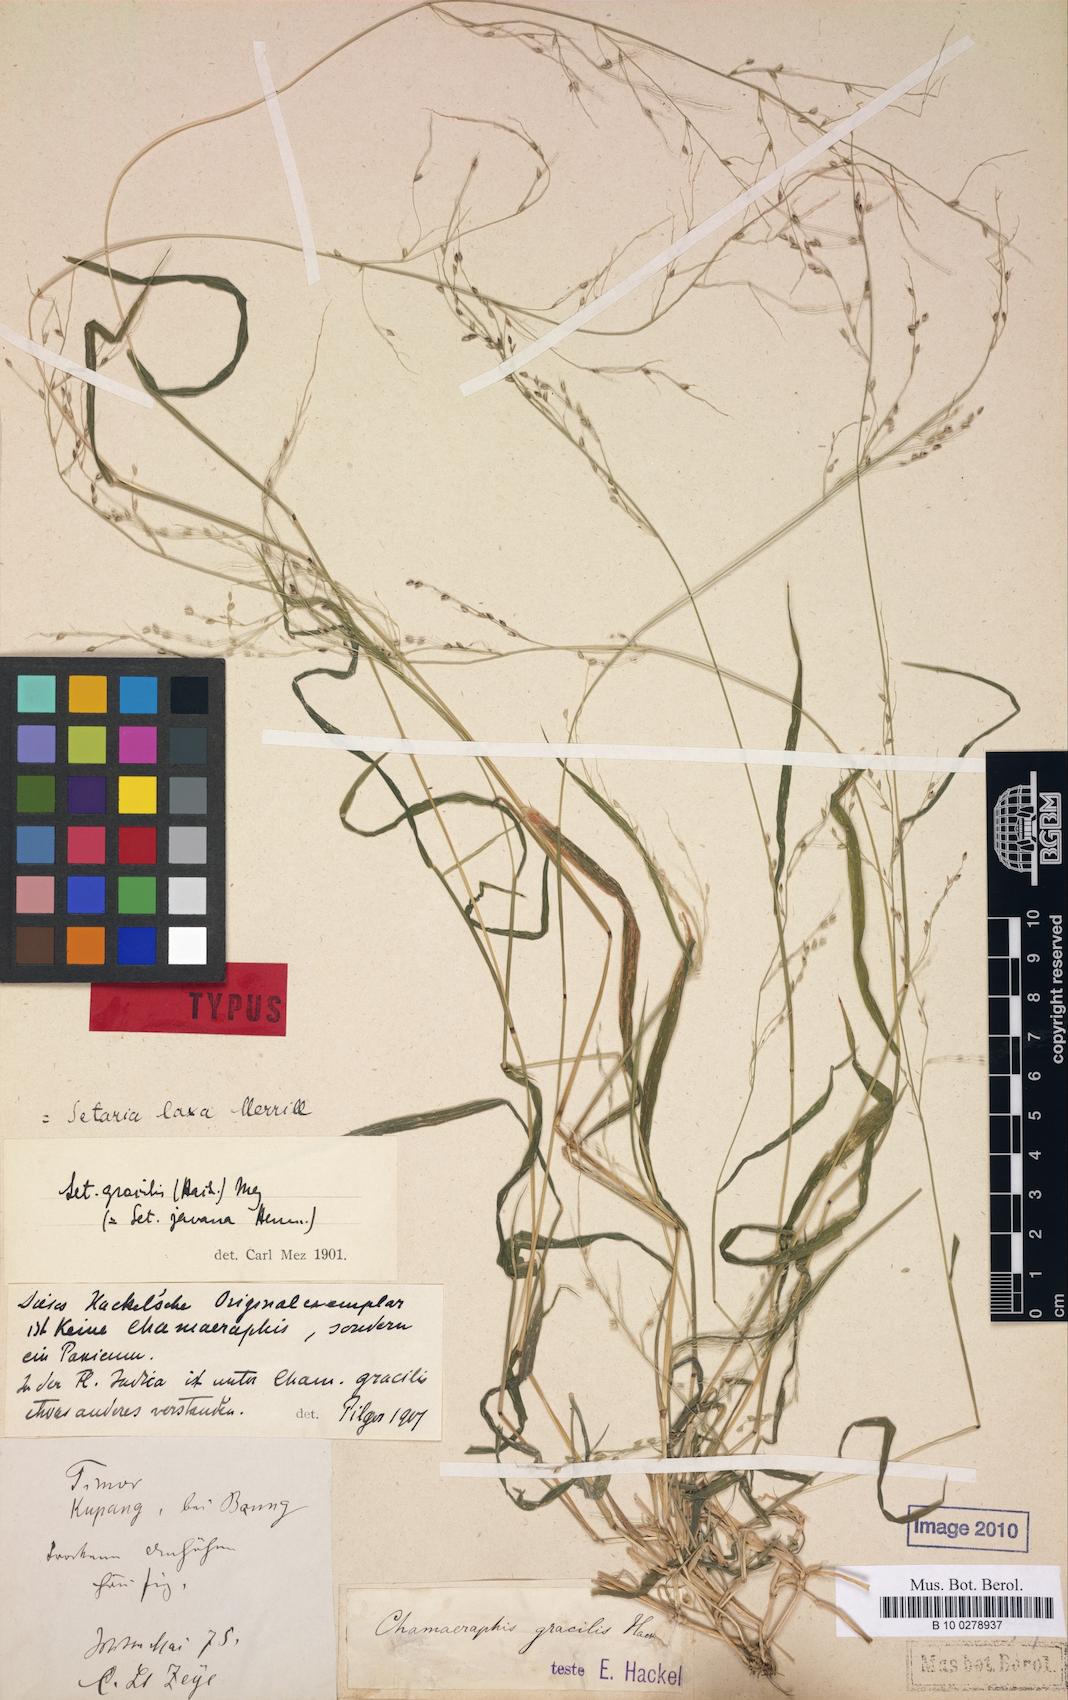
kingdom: Plantae
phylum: Tracheophyta
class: Liliopsida
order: Poales
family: Poaceae
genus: Setaria
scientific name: Setaria clivalis
